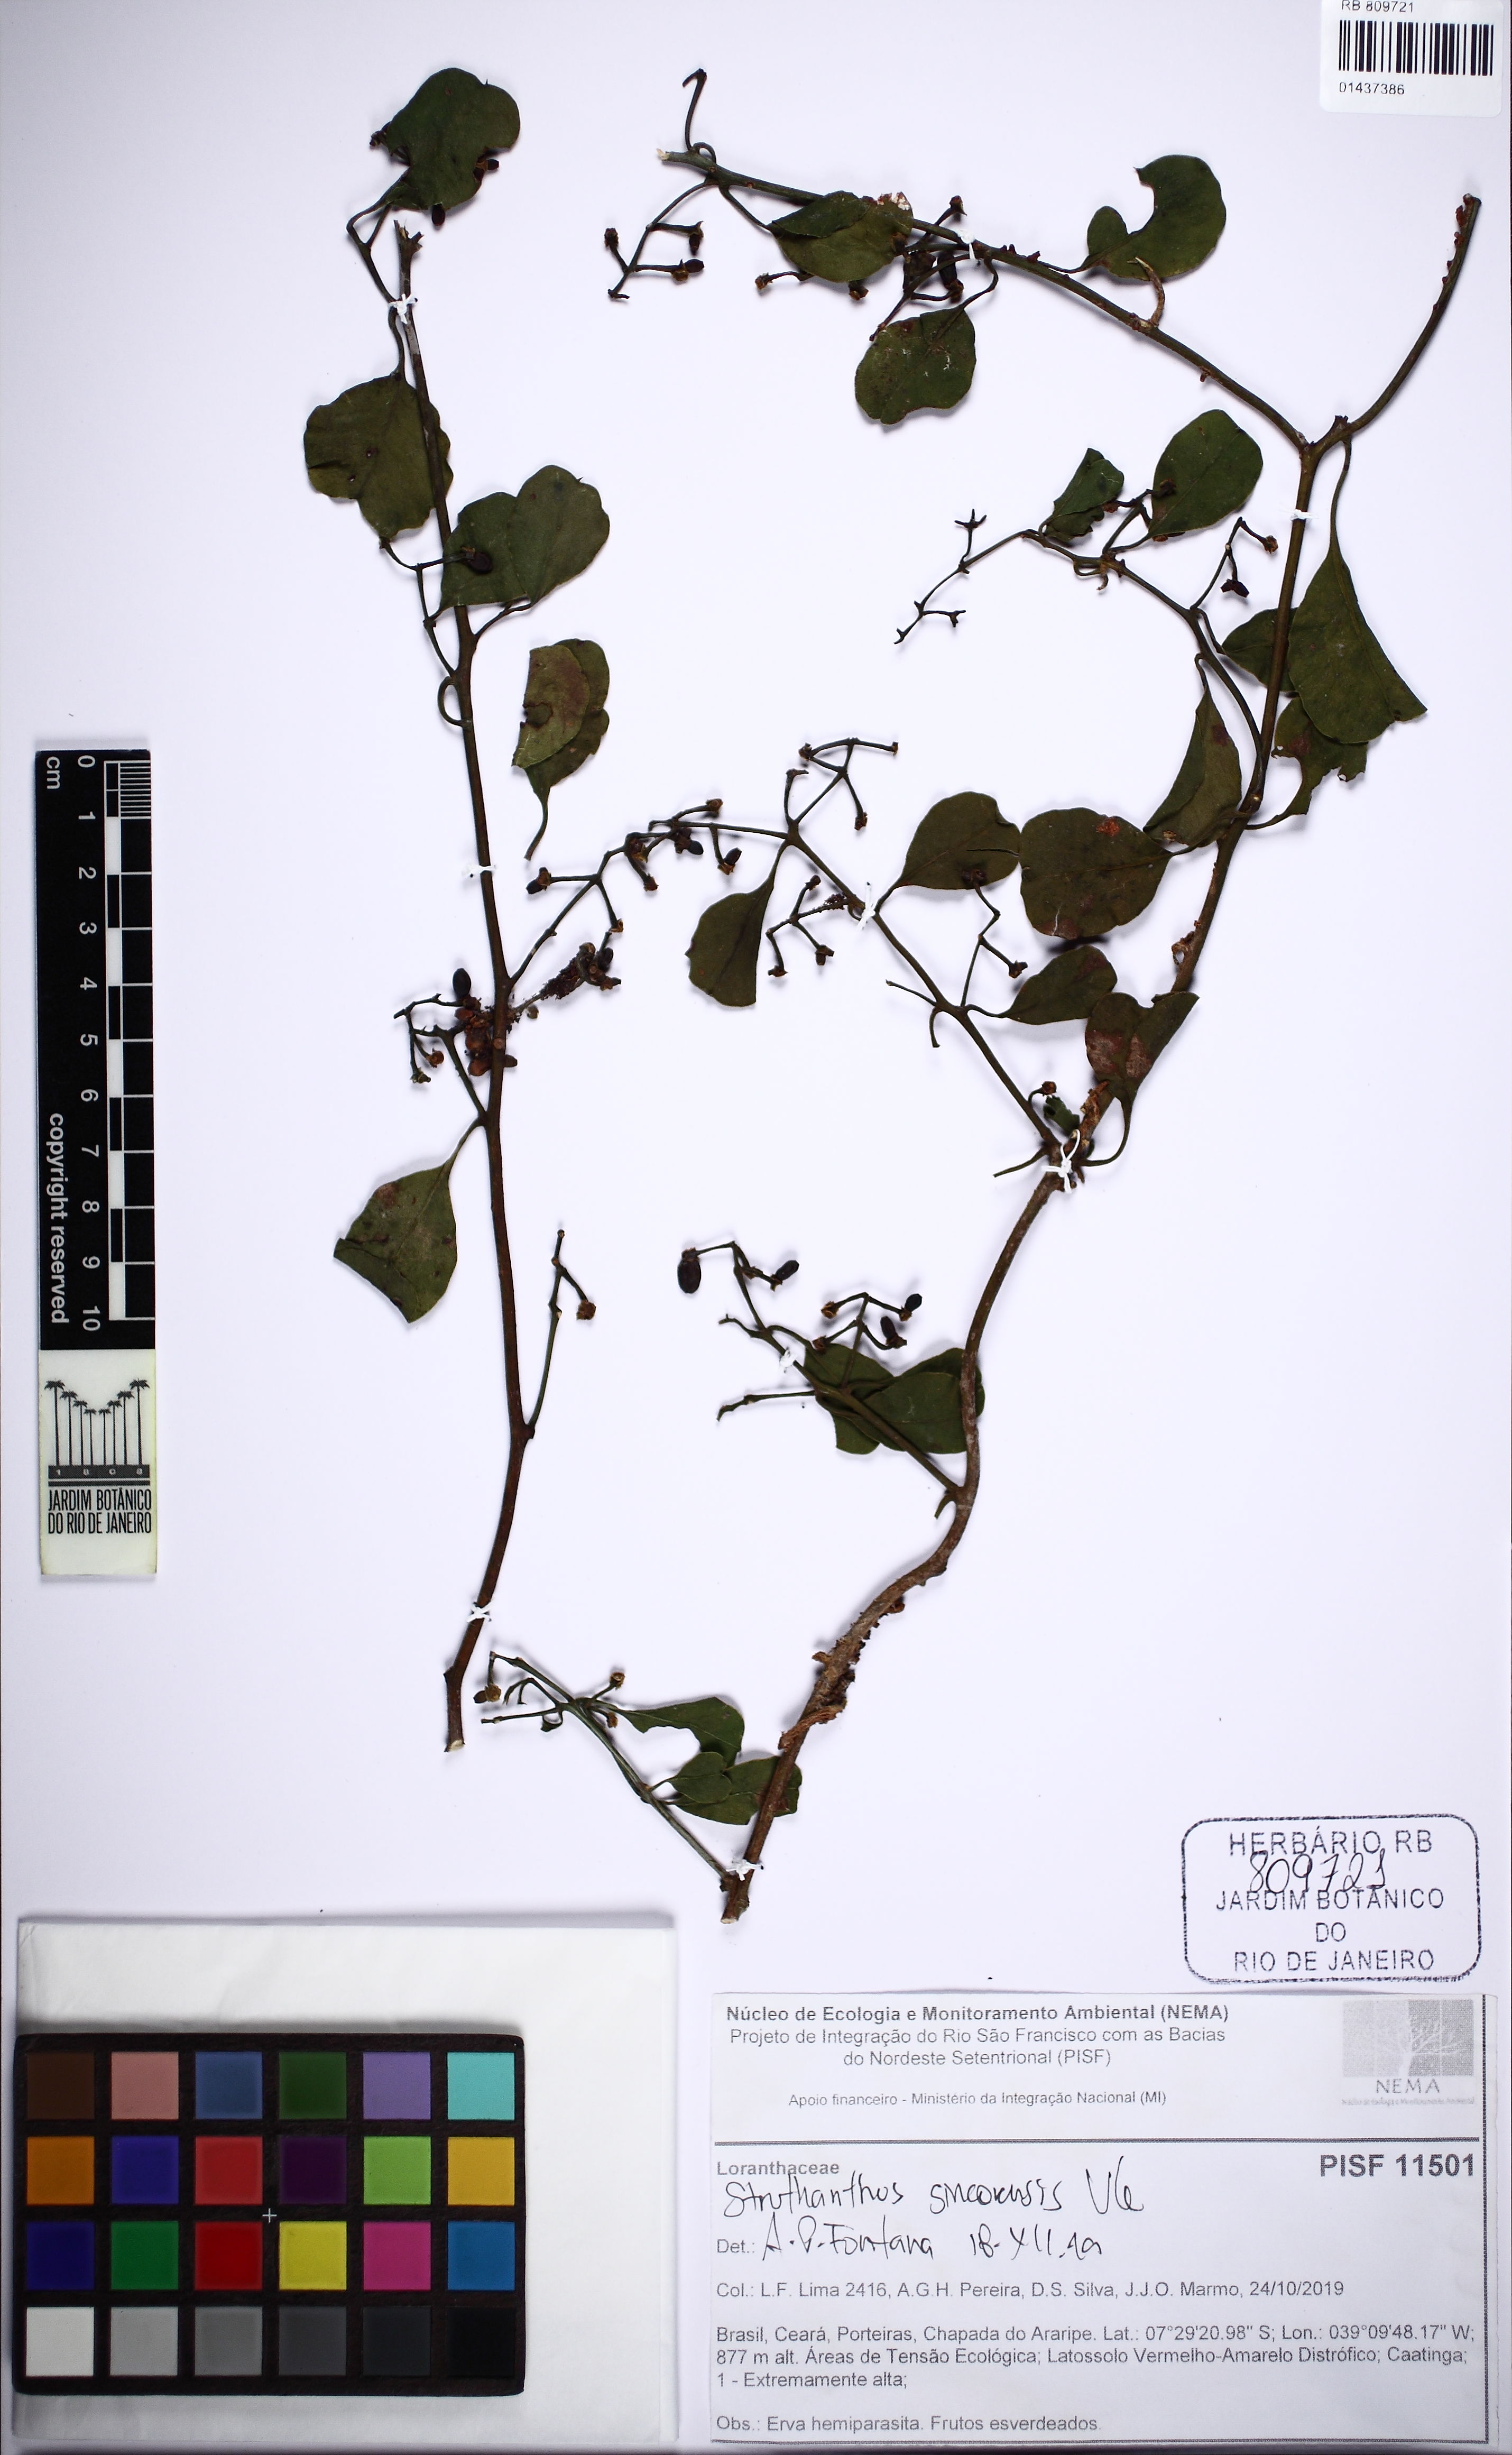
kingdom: Plantae
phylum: Tracheophyta
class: Magnoliopsida
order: Santalales
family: Loranthaceae
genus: Struthanthus
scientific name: Struthanthus sincorensis
